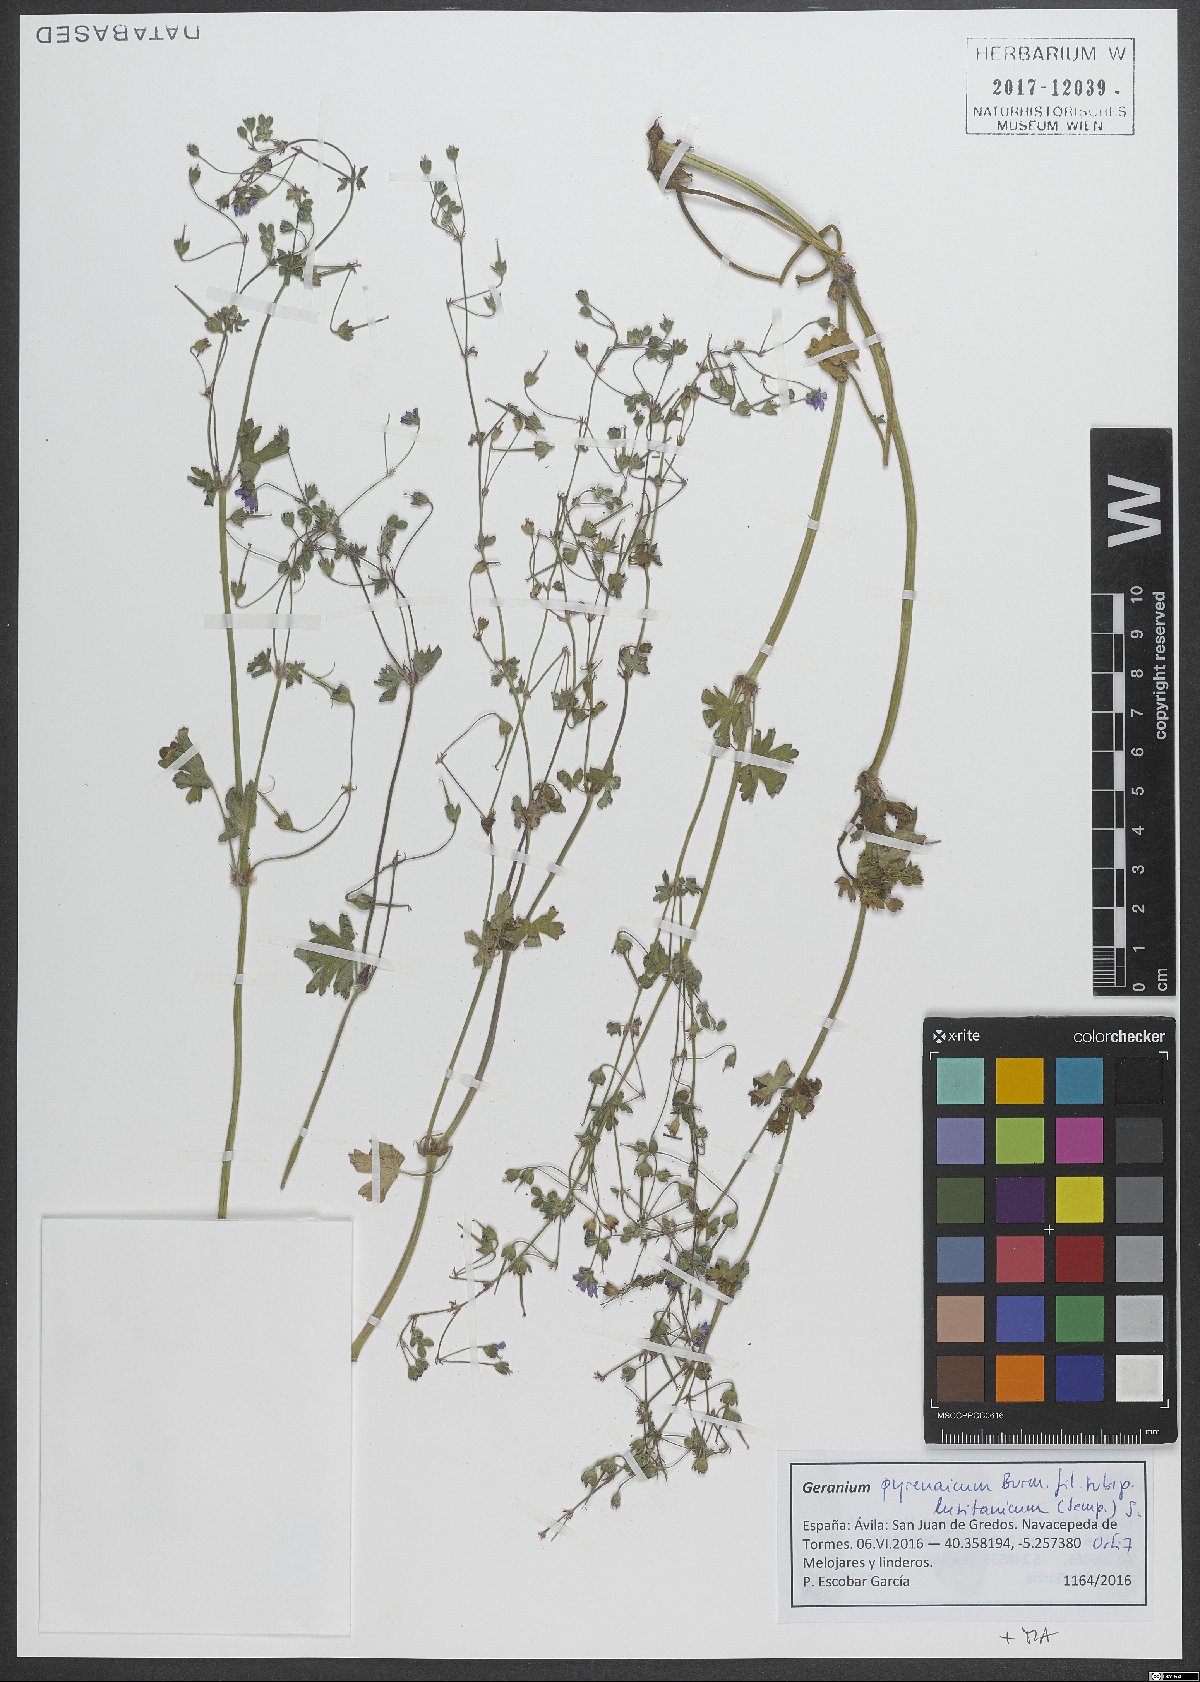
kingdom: Plantae
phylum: Tracheophyta
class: Magnoliopsida
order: Geraniales
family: Geraniaceae
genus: Geranium
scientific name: Geranium pyrenaicum
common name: Hedgerow crane's-bill
